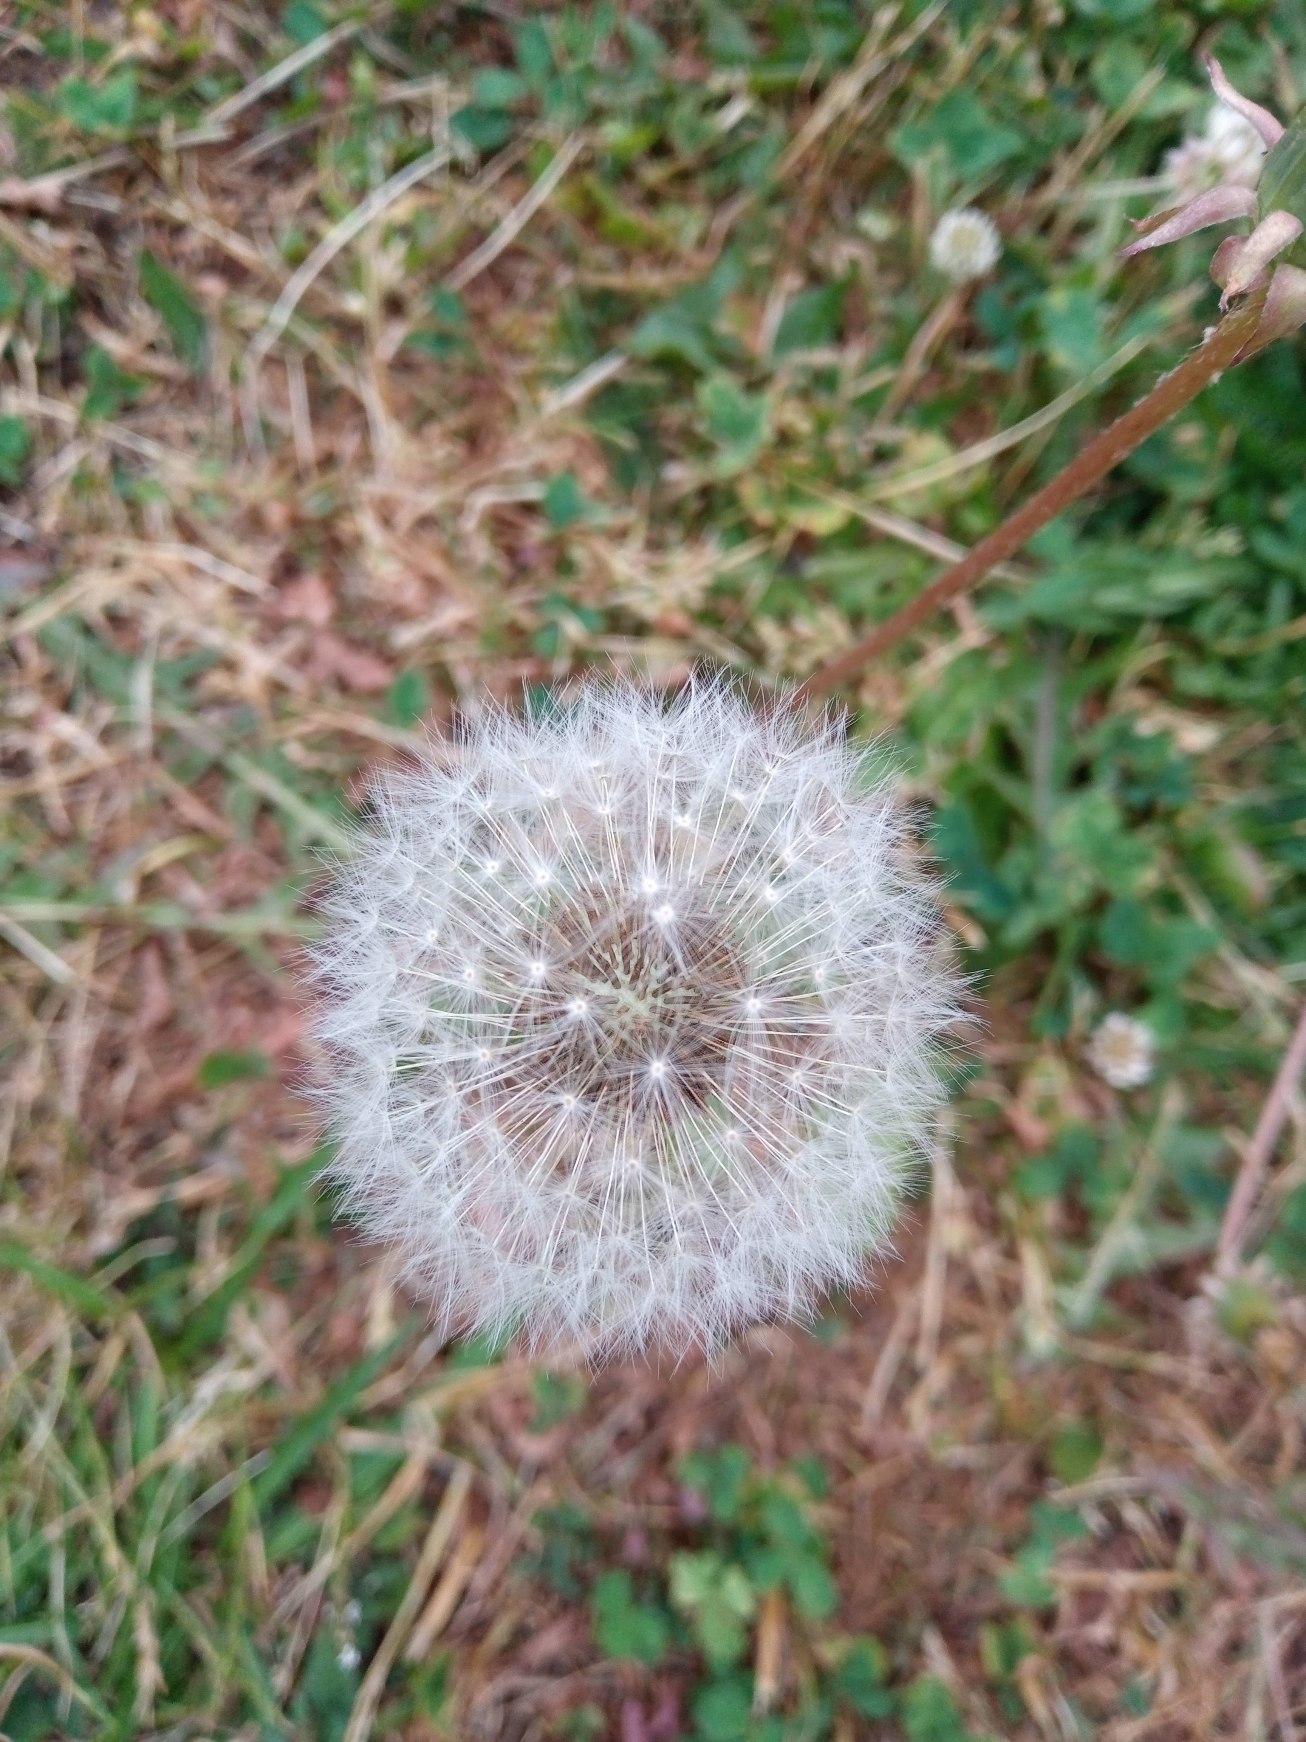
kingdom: Plantae
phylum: Tracheophyta
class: Magnoliopsida
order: Asterales
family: Asteraceae
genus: Taraxacum
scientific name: Taraxacum
